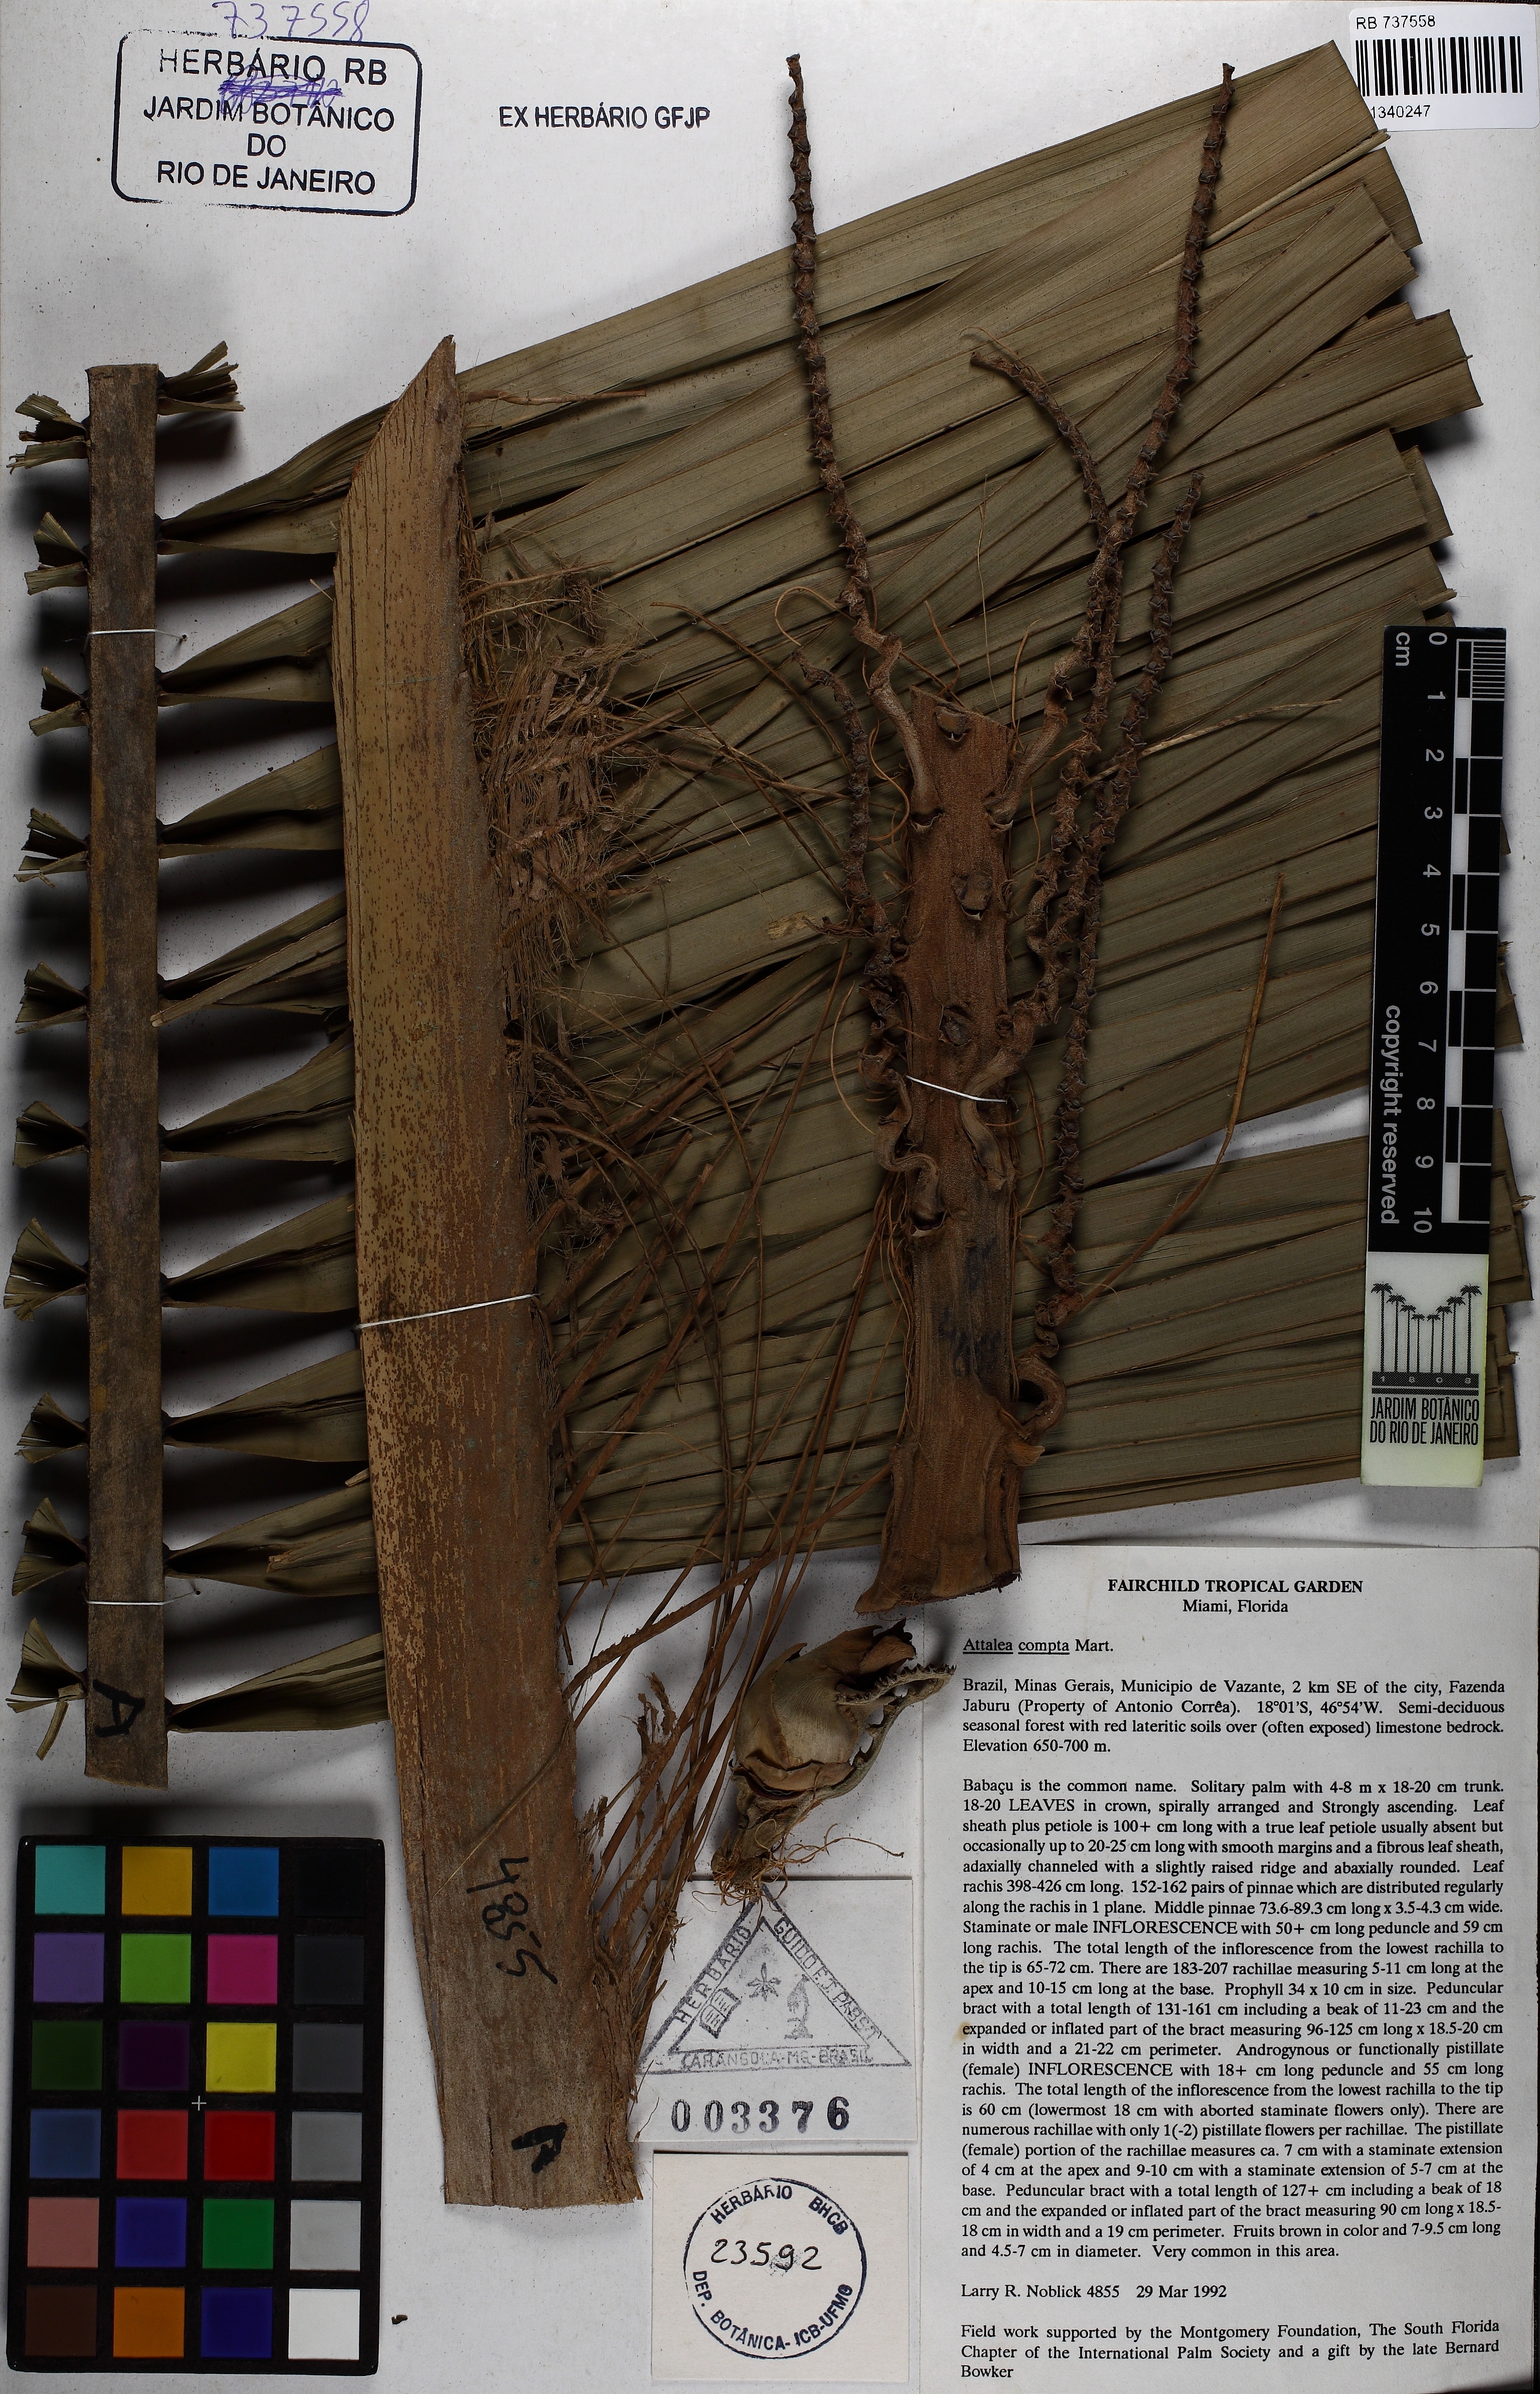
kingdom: Plantae
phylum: Tracheophyta
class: Liliopsida
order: Arecales
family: Arecaceae
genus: Attalea
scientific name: Attalea compta
